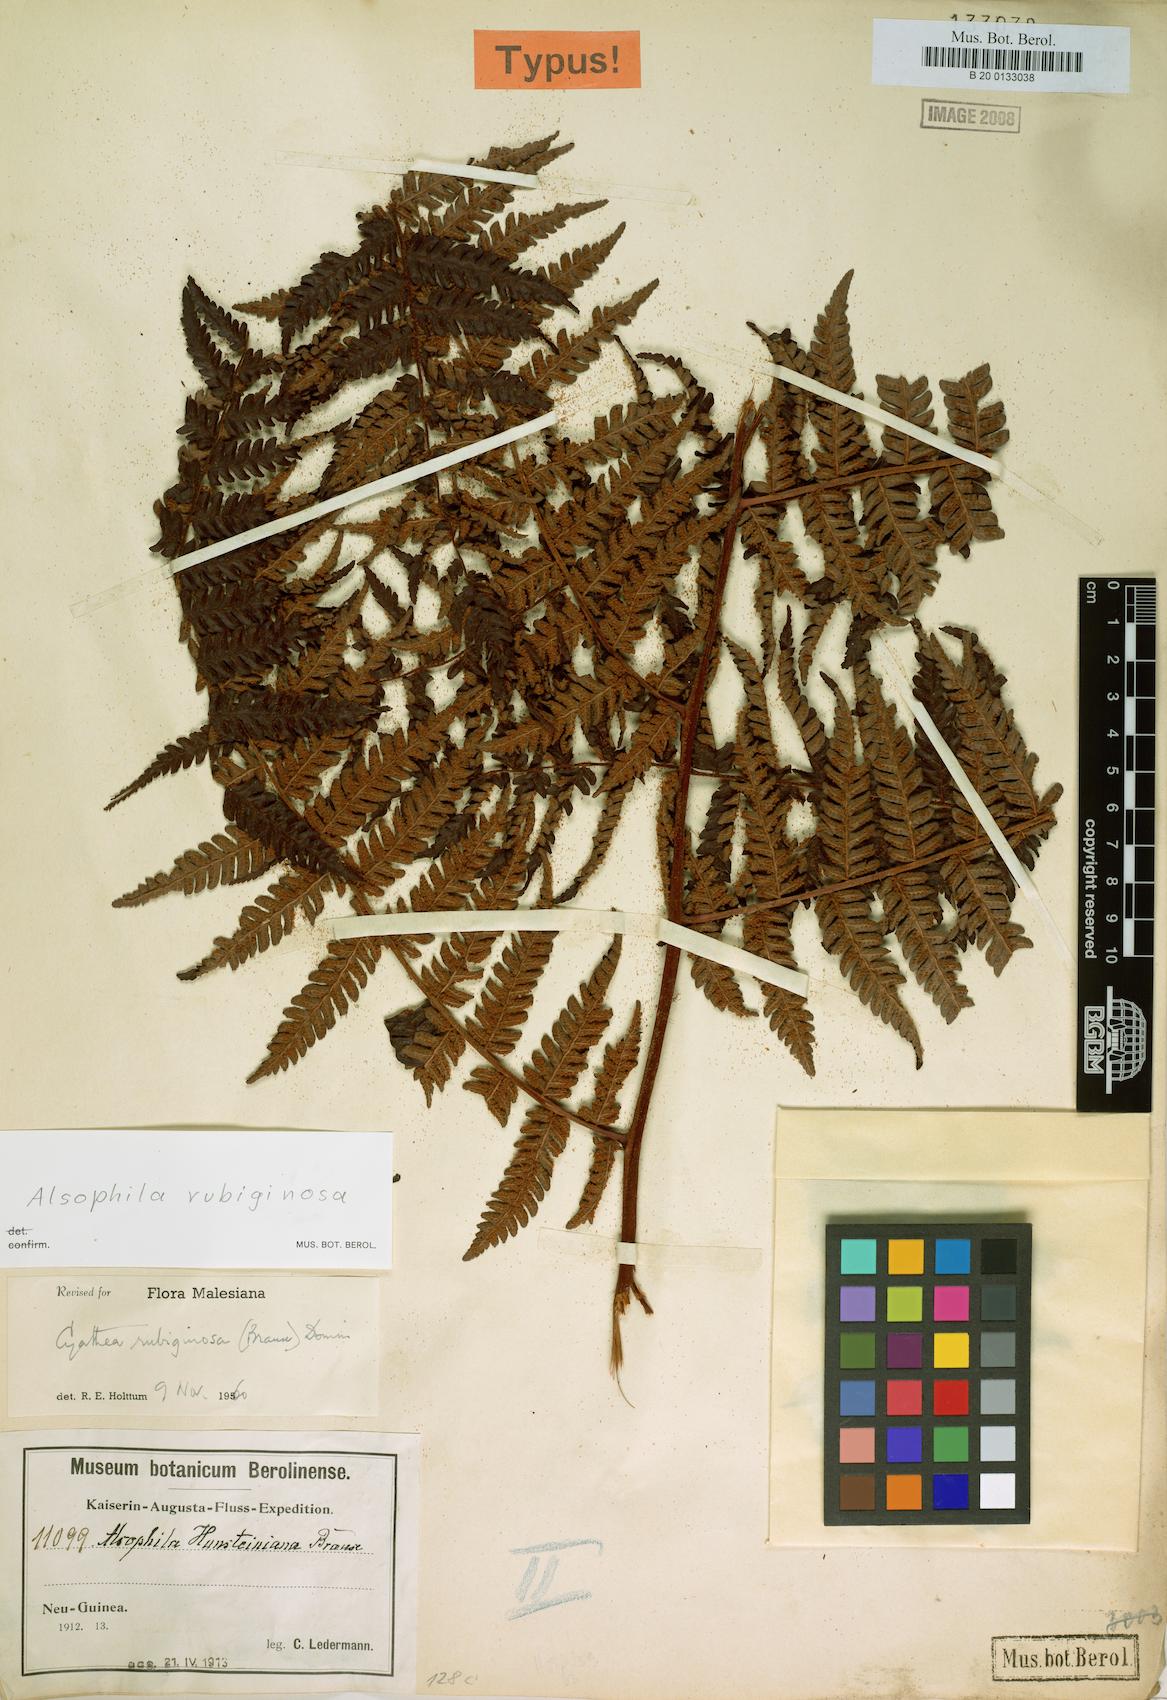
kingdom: Plantae
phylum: Tracheophyta
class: Polypodiopsida
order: Cyatheales
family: Cyatheaceae
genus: Alsophila
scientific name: Alsophila rubiginosa
